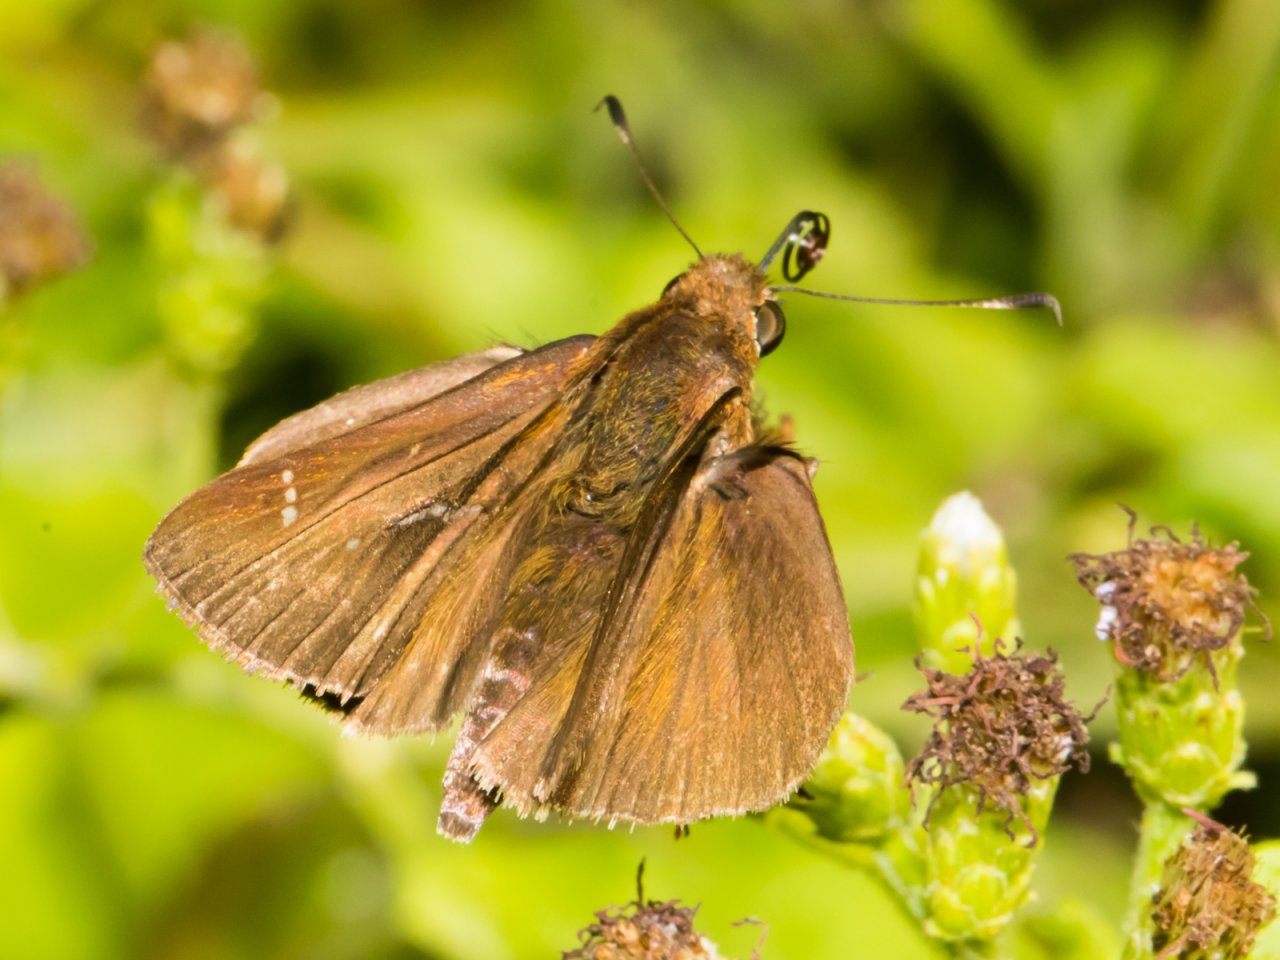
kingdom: Animalia
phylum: Arthropoda
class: Insecta
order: Lepidoptera
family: Hesperiidae
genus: Lerema
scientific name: Lerema accius
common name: Clouded Skipper
